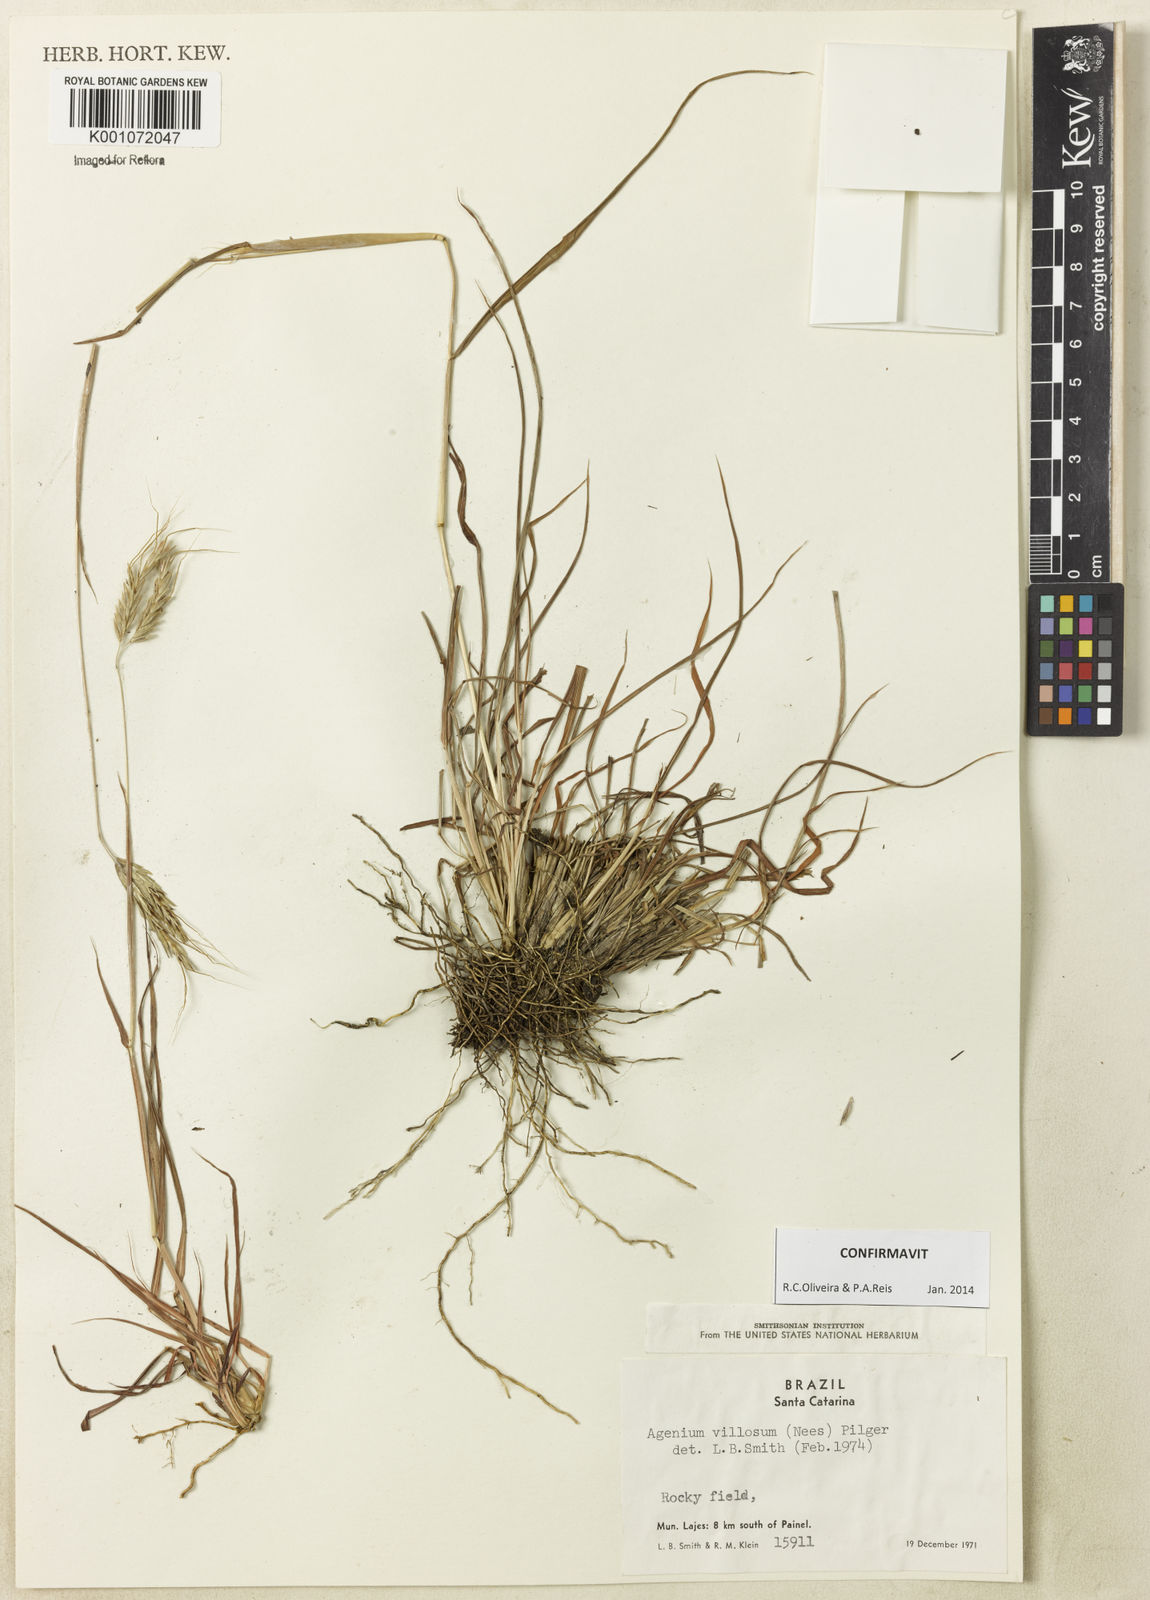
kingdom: Plantae
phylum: Tracheophyta
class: Liliopsida
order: Poales
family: Poaceae
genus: Agenium
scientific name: Agenium villosum
